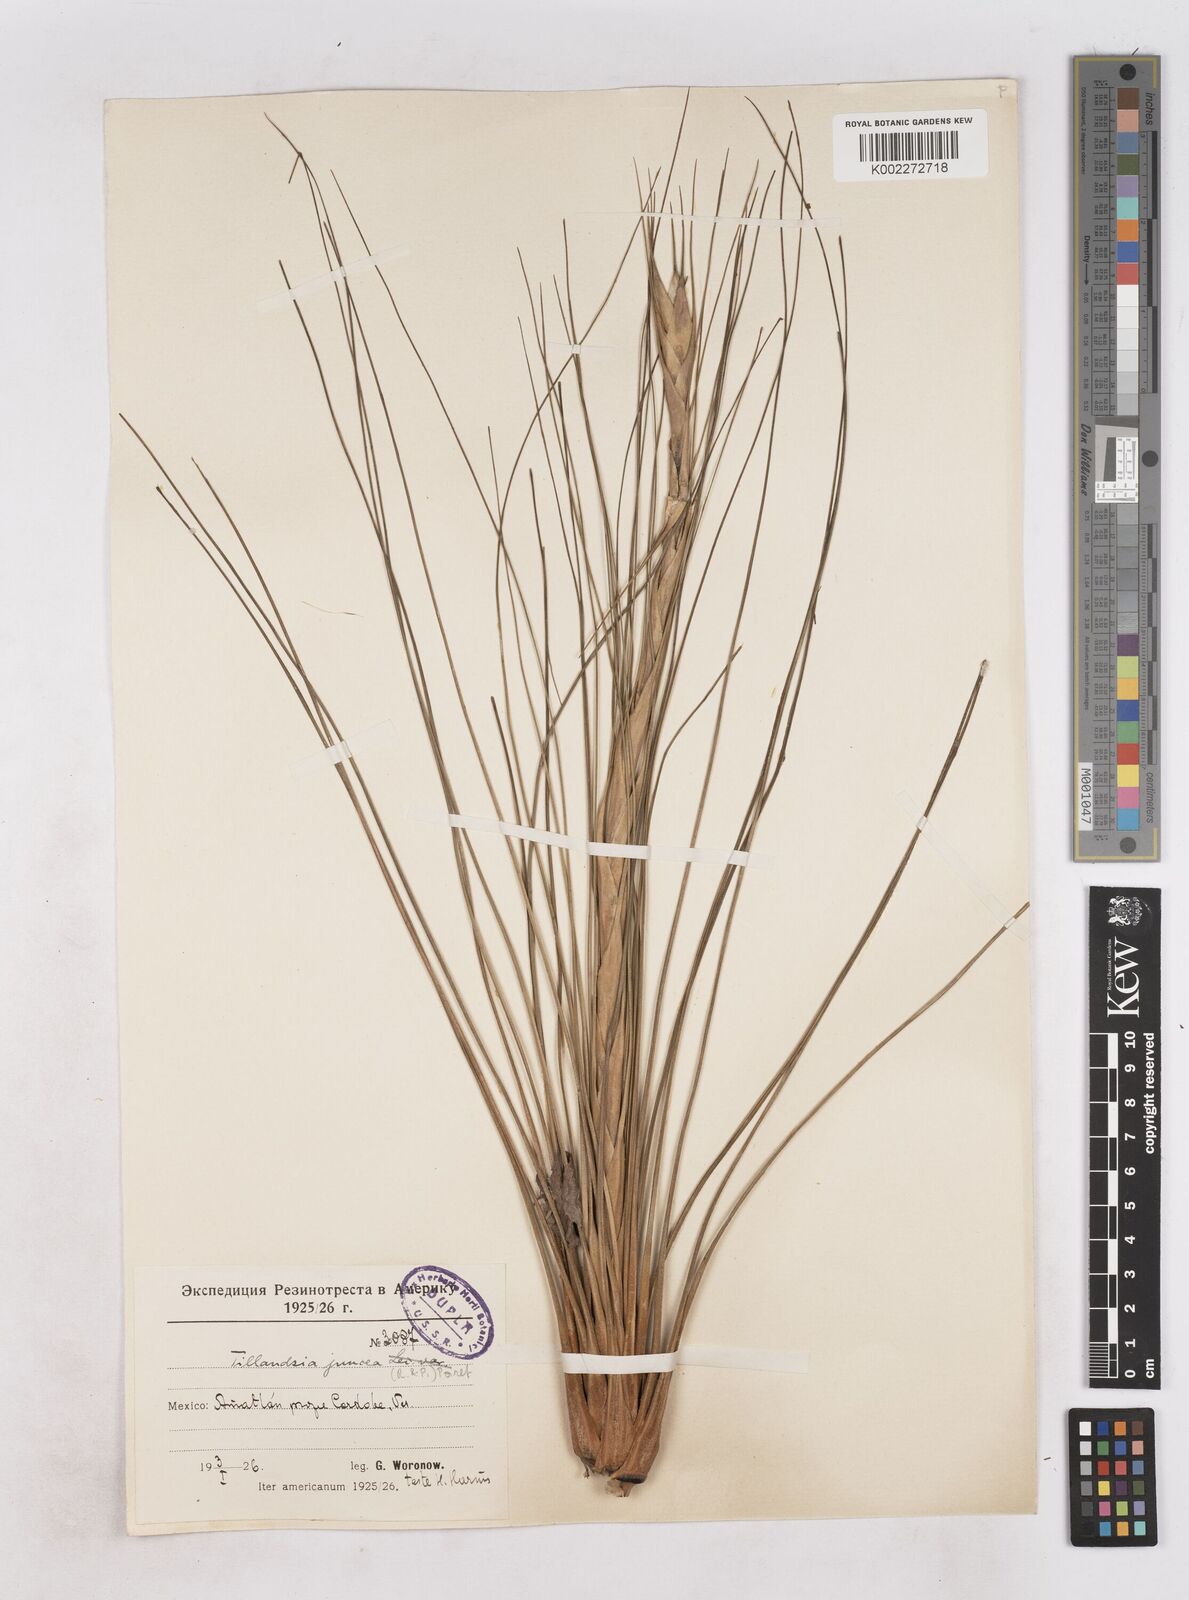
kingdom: Plantae
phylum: Tracheophyta
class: Liliopsida
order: Poales
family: Bromeliaceae
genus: Tillandsia
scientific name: Tillandsia juncea
